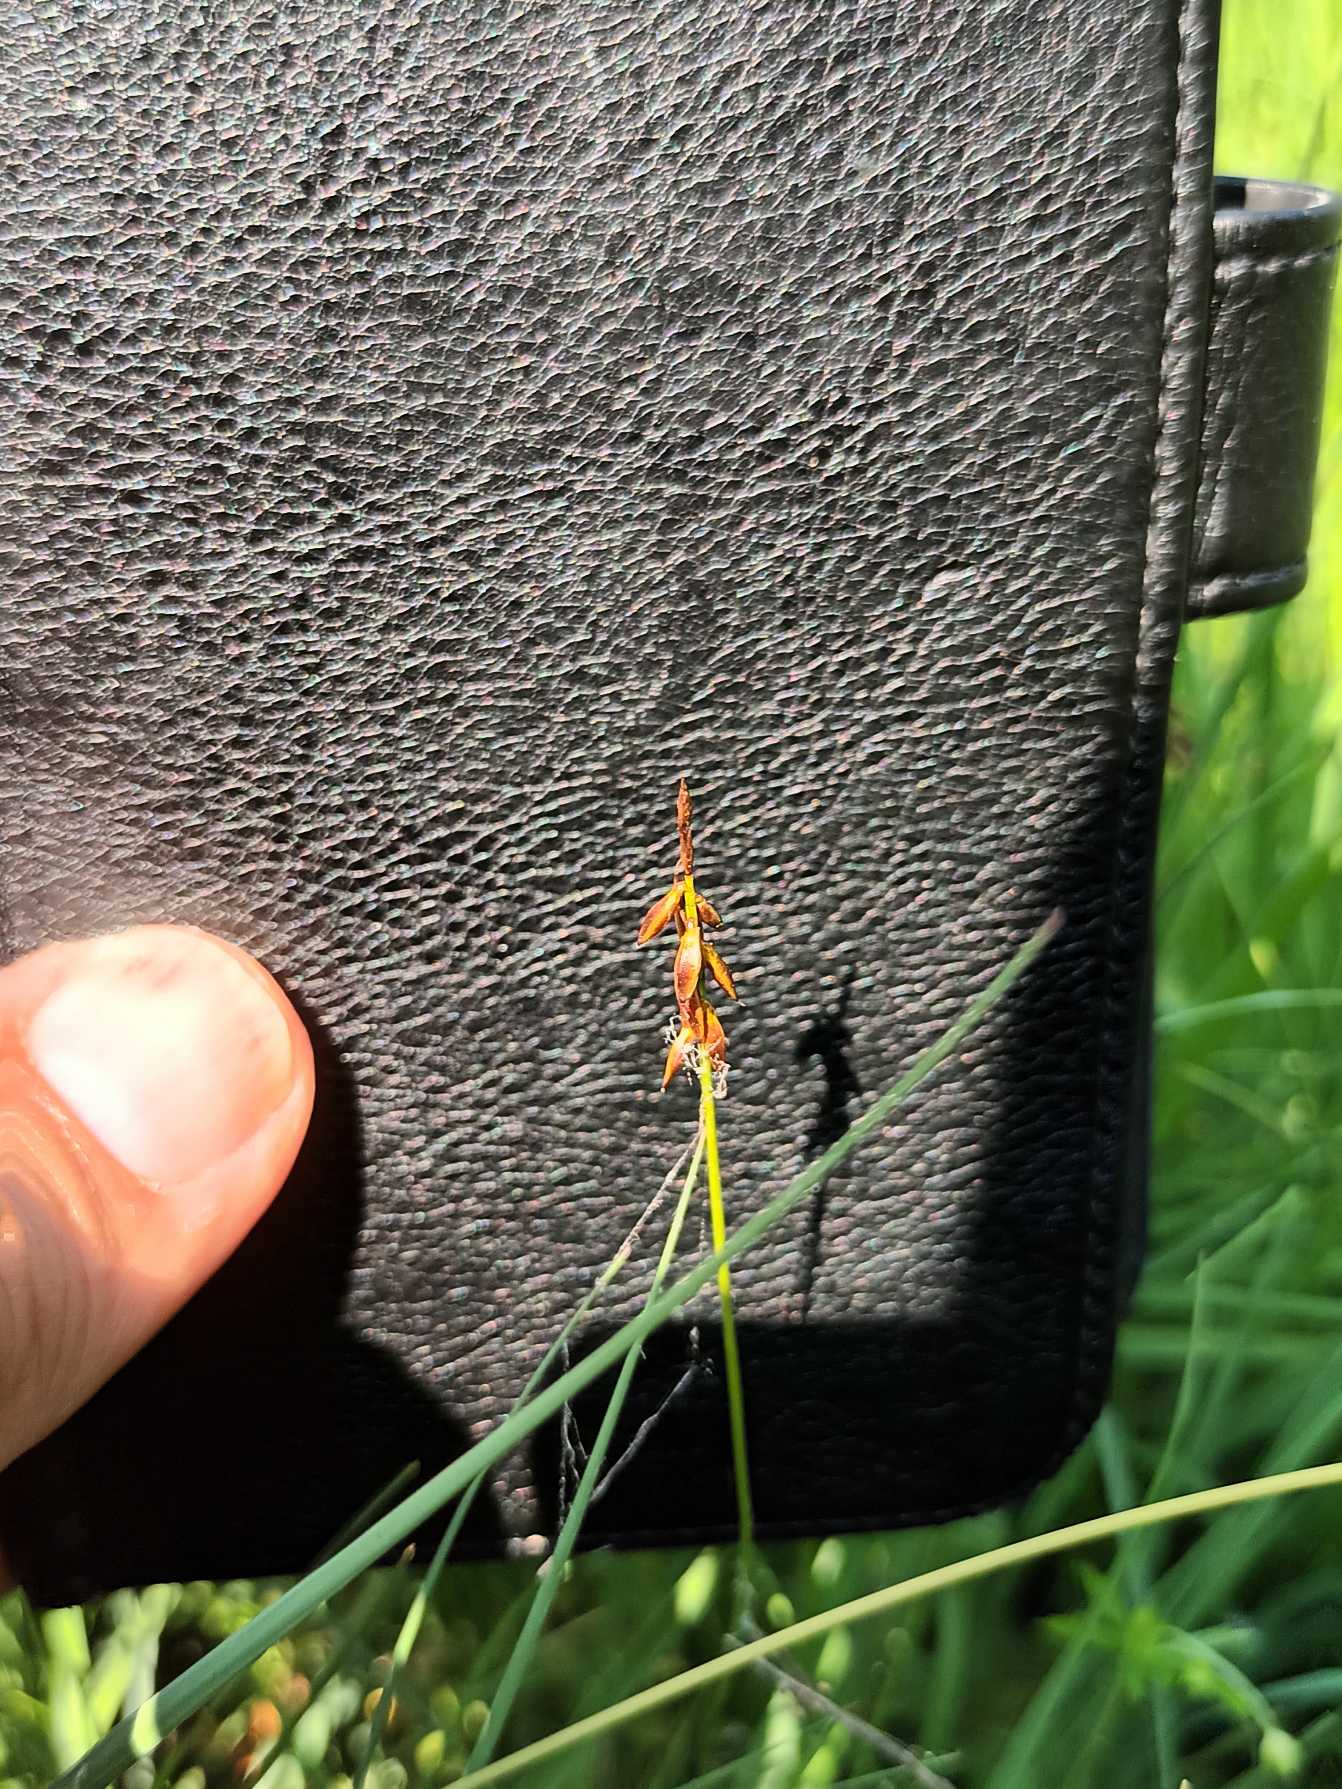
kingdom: Plantae
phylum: Tracheophyta
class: Liliopsida
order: Poales
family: Cyperaceae
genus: Carex
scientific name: Carex pulicaris
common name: Loppe-star
